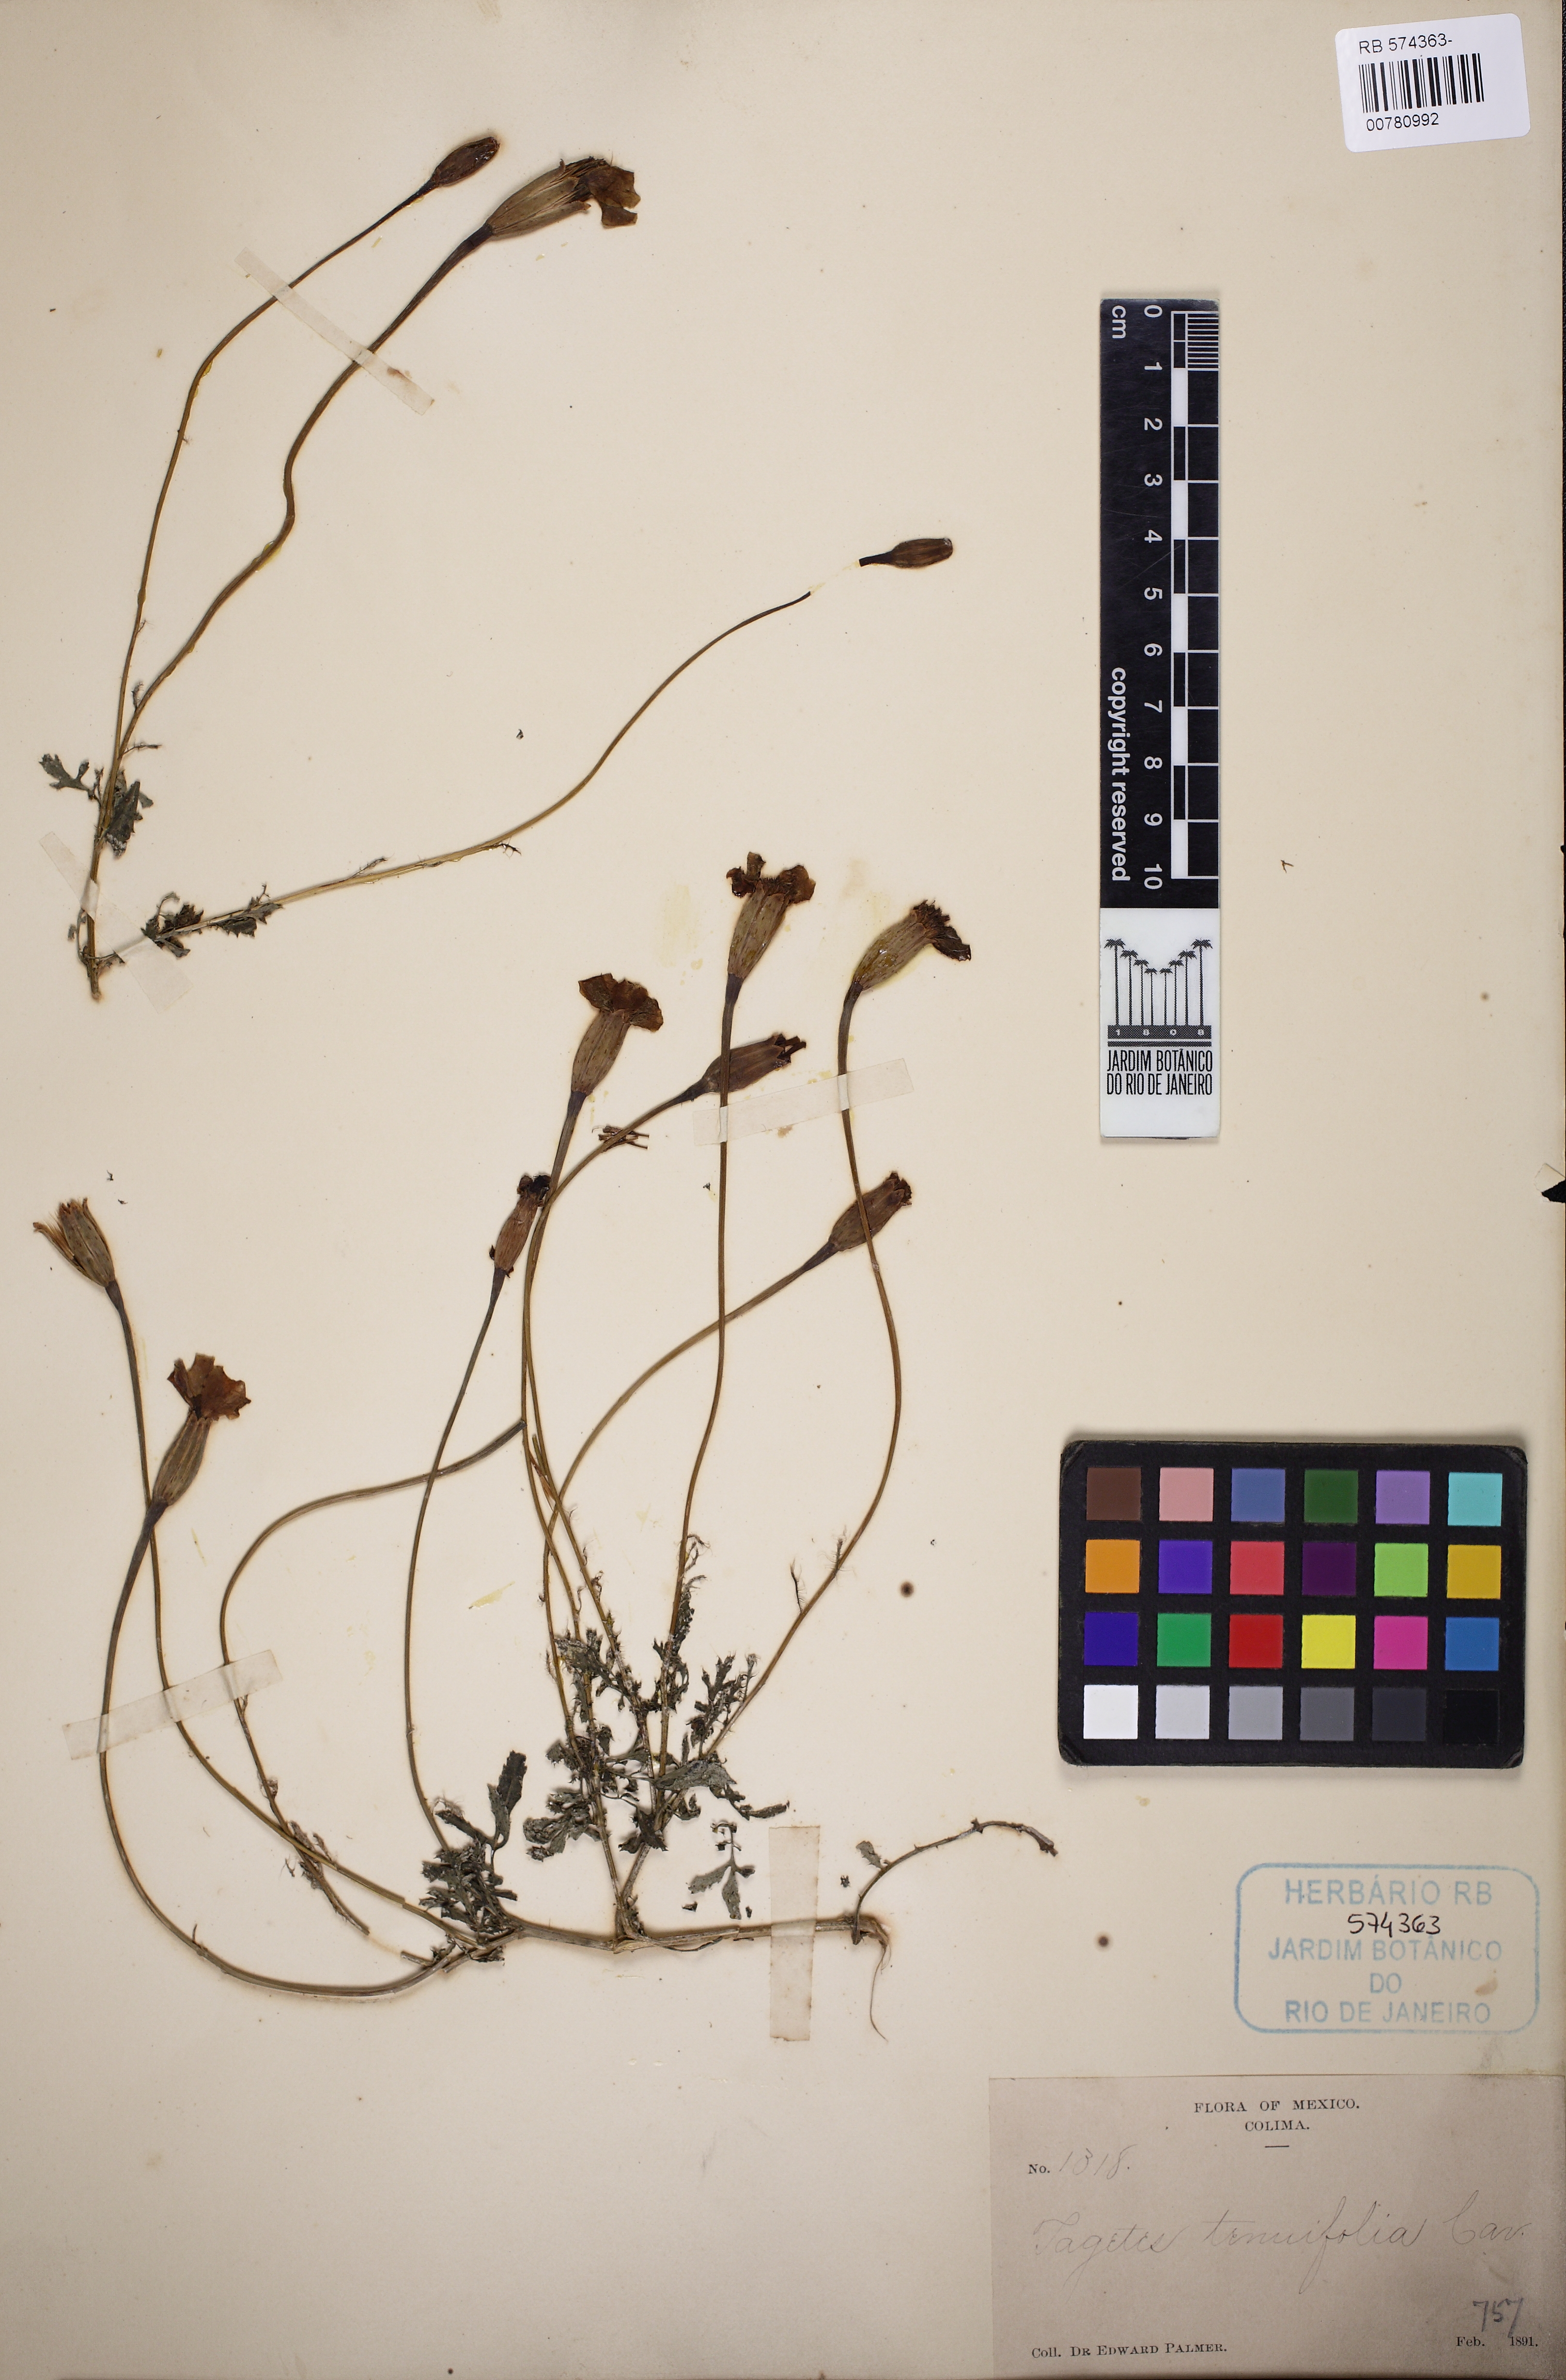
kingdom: Plantae
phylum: Tracheophyta
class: Magnoliopsida
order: Asterales
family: Asteraceae
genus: Tagetes
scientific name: Tagetes tenuifolia
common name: Signet marigold
